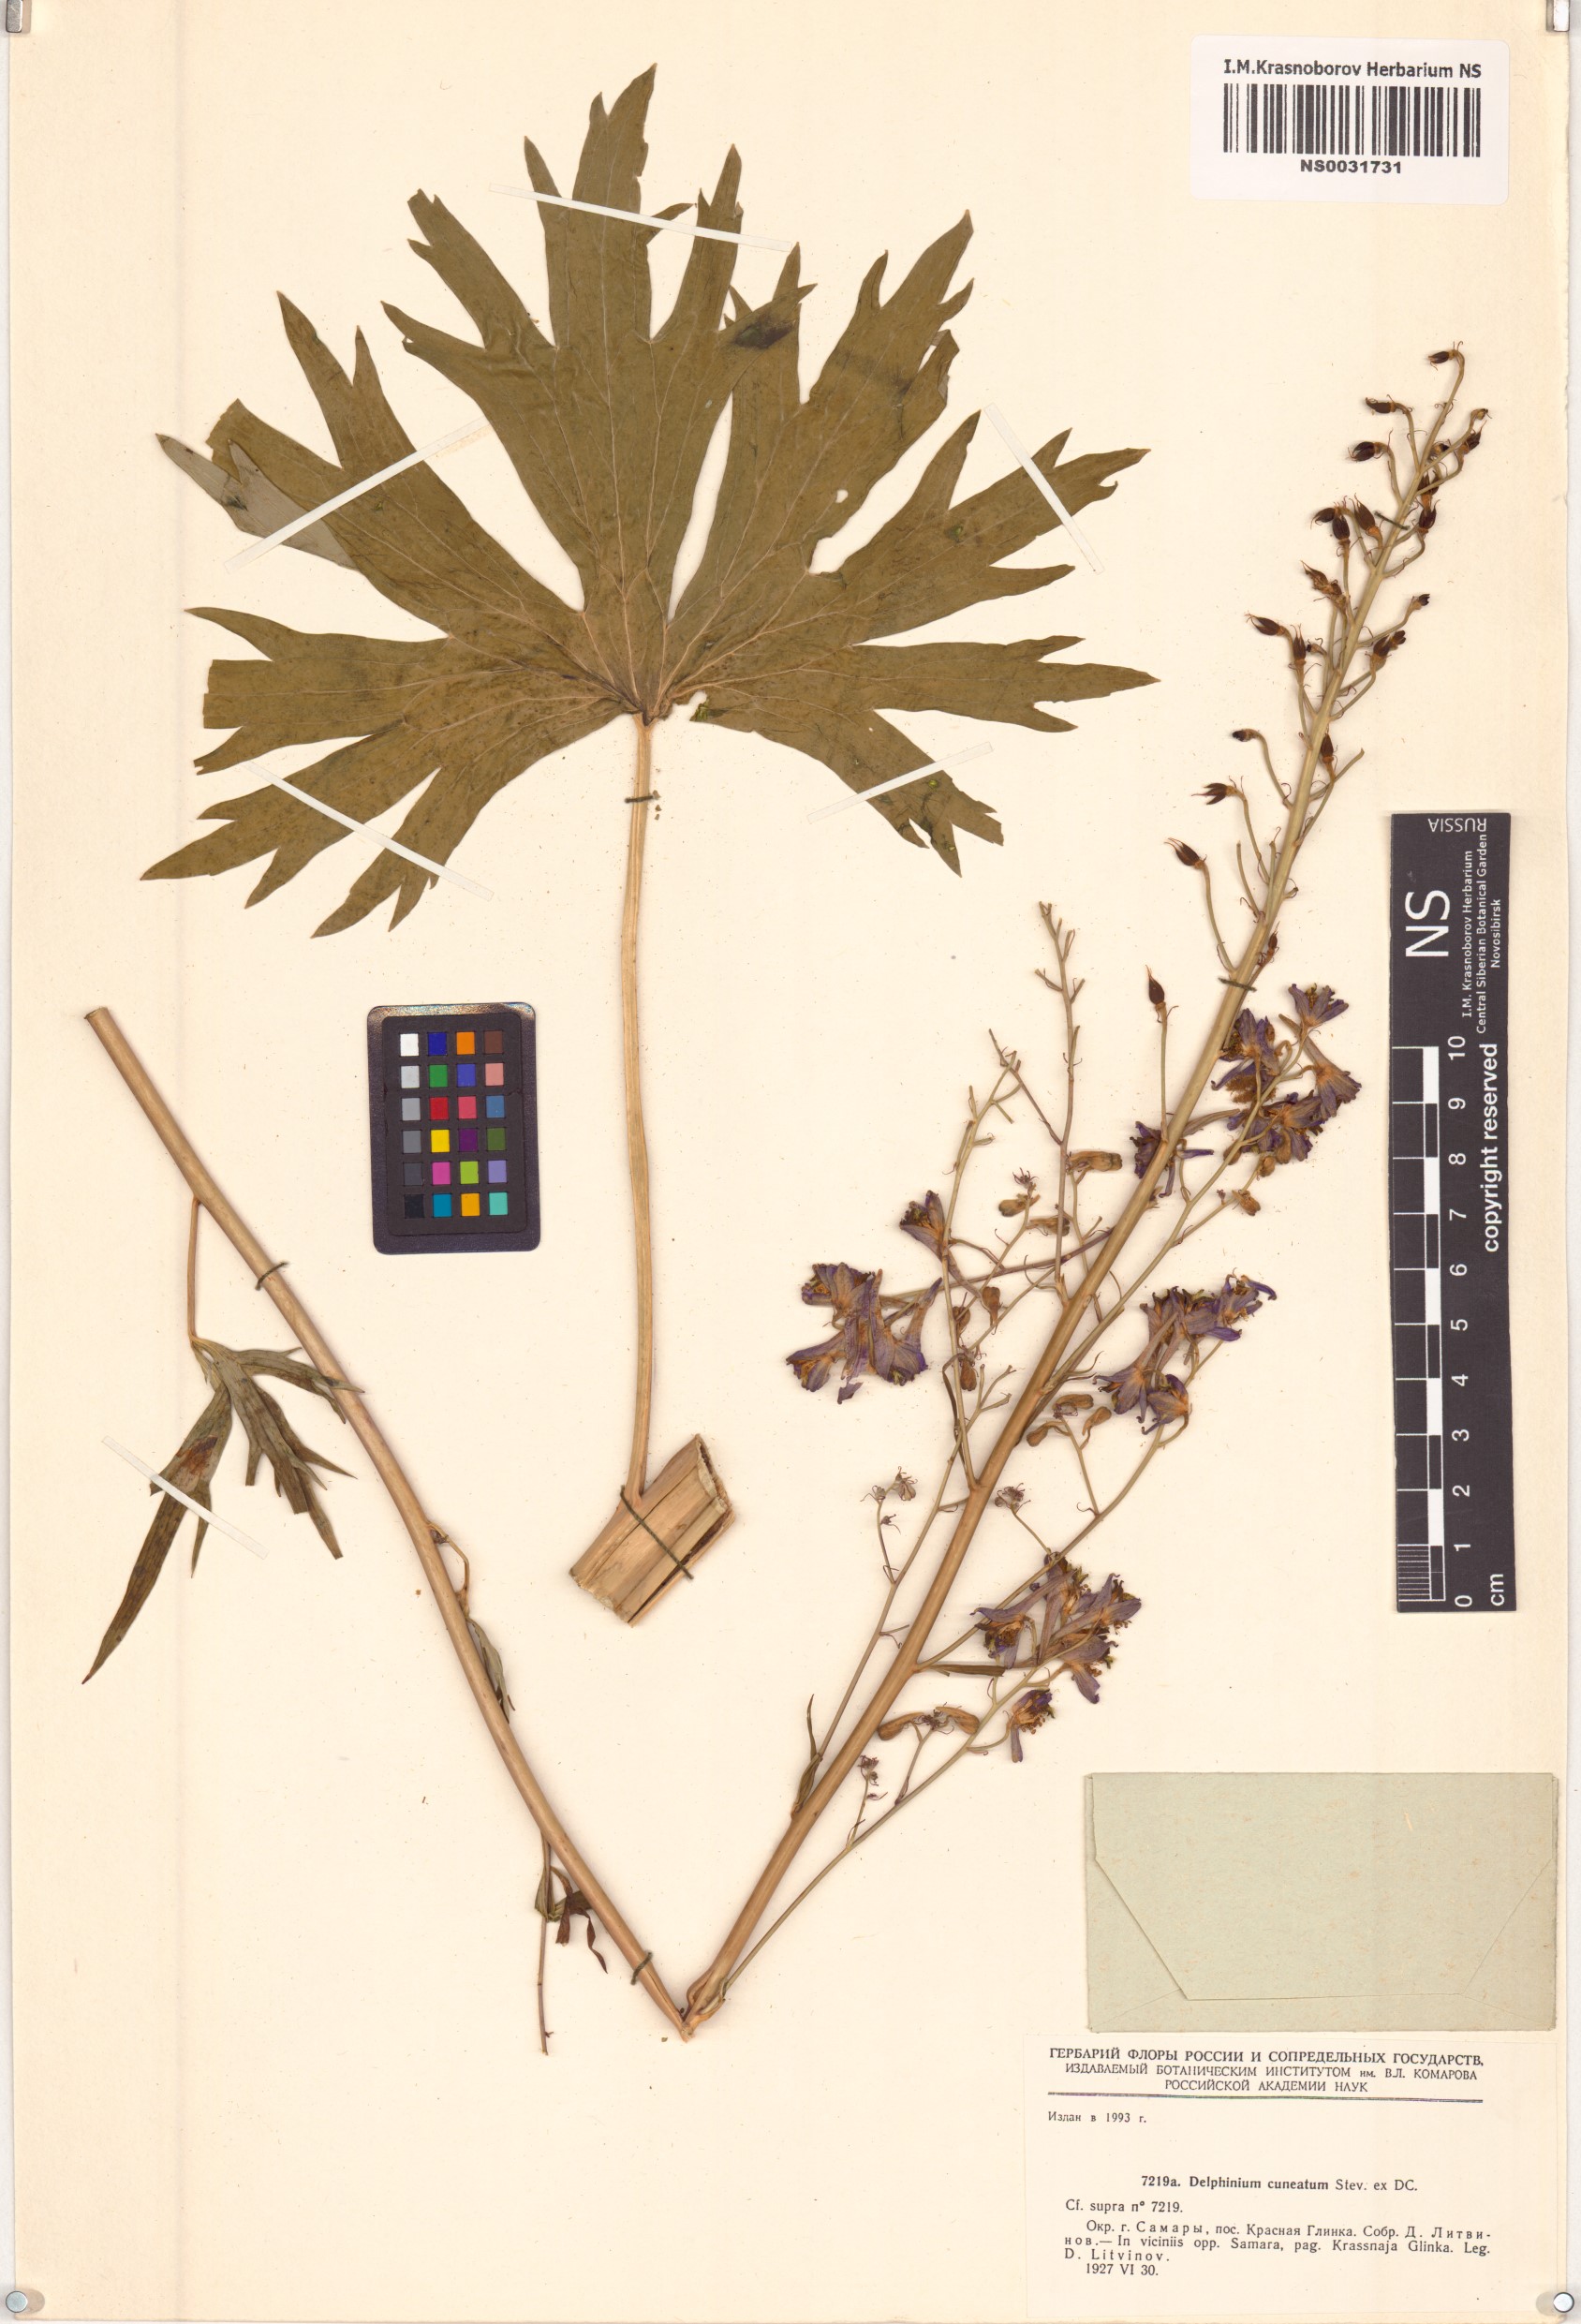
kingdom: Plantae
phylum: Tracheophyta
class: Magnoliopsida
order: Ranunculales
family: Ranunculaceae
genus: Delphinium
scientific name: Delphinium cuneatum
